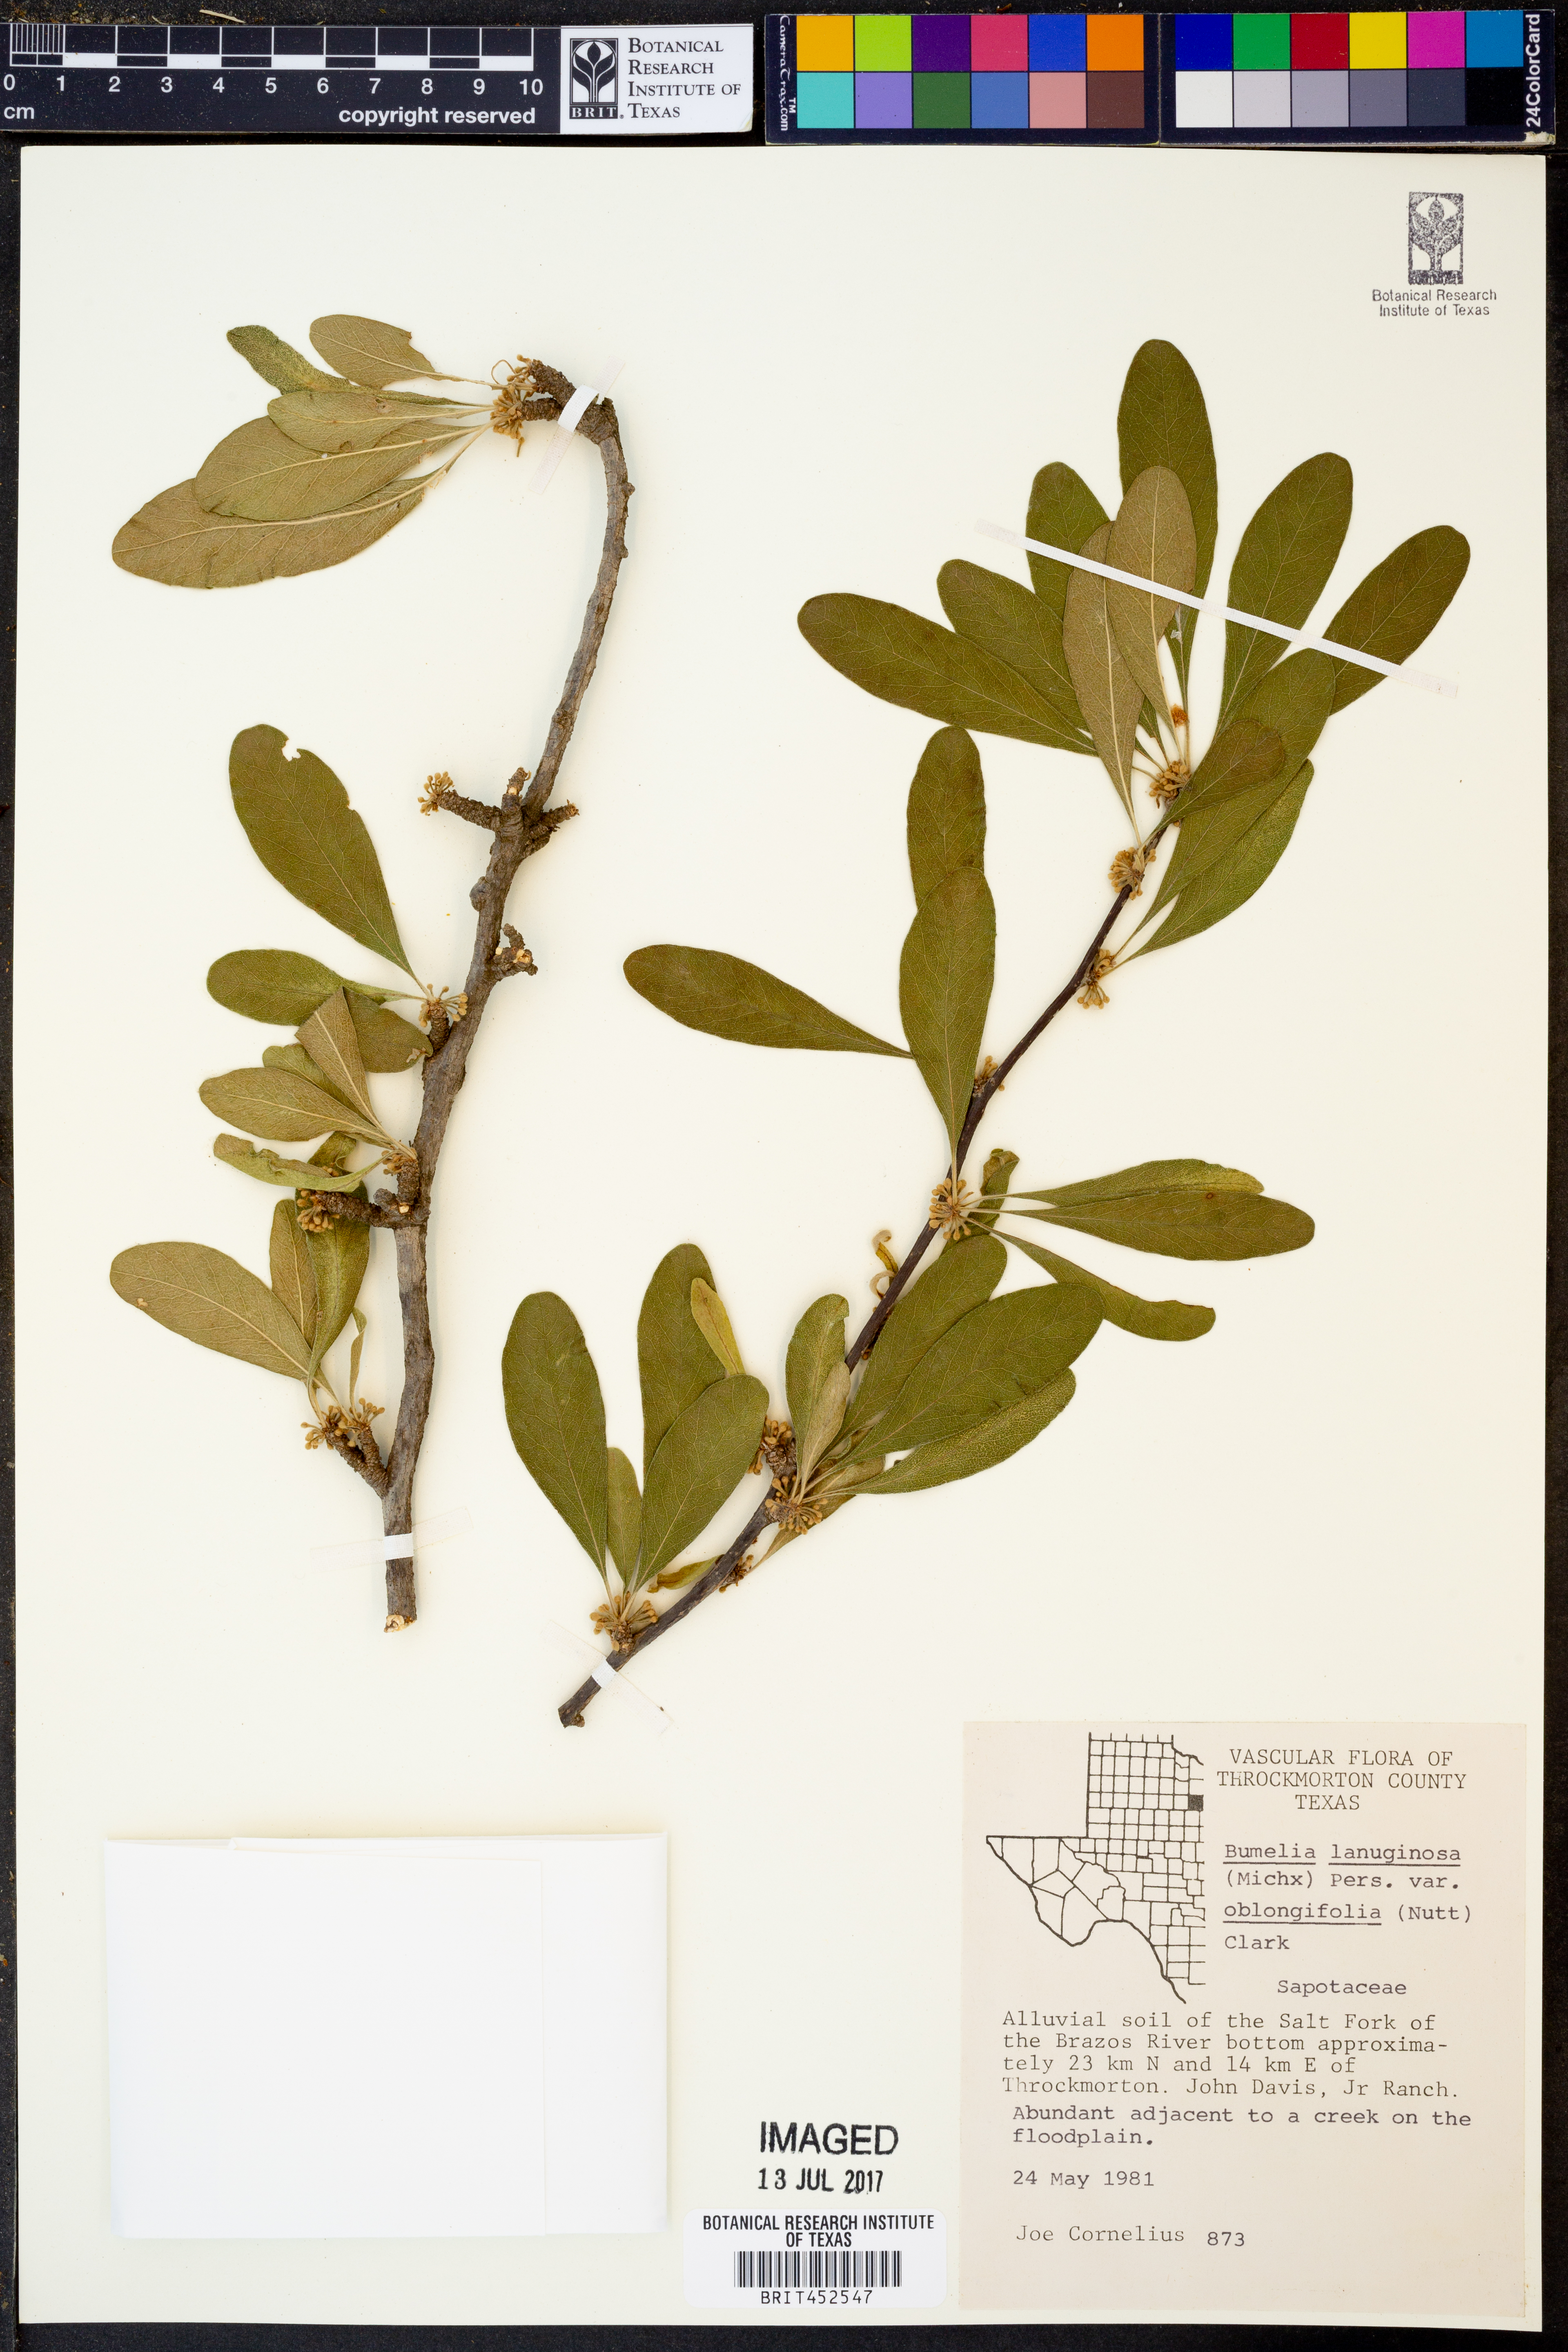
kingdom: Plantae
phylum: Tracheophyta
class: Magnoliopsida
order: Ericales
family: Sapotaceae
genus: Sideroxylon
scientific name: Sideroxylon lanuginosum
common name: Chittamwood
